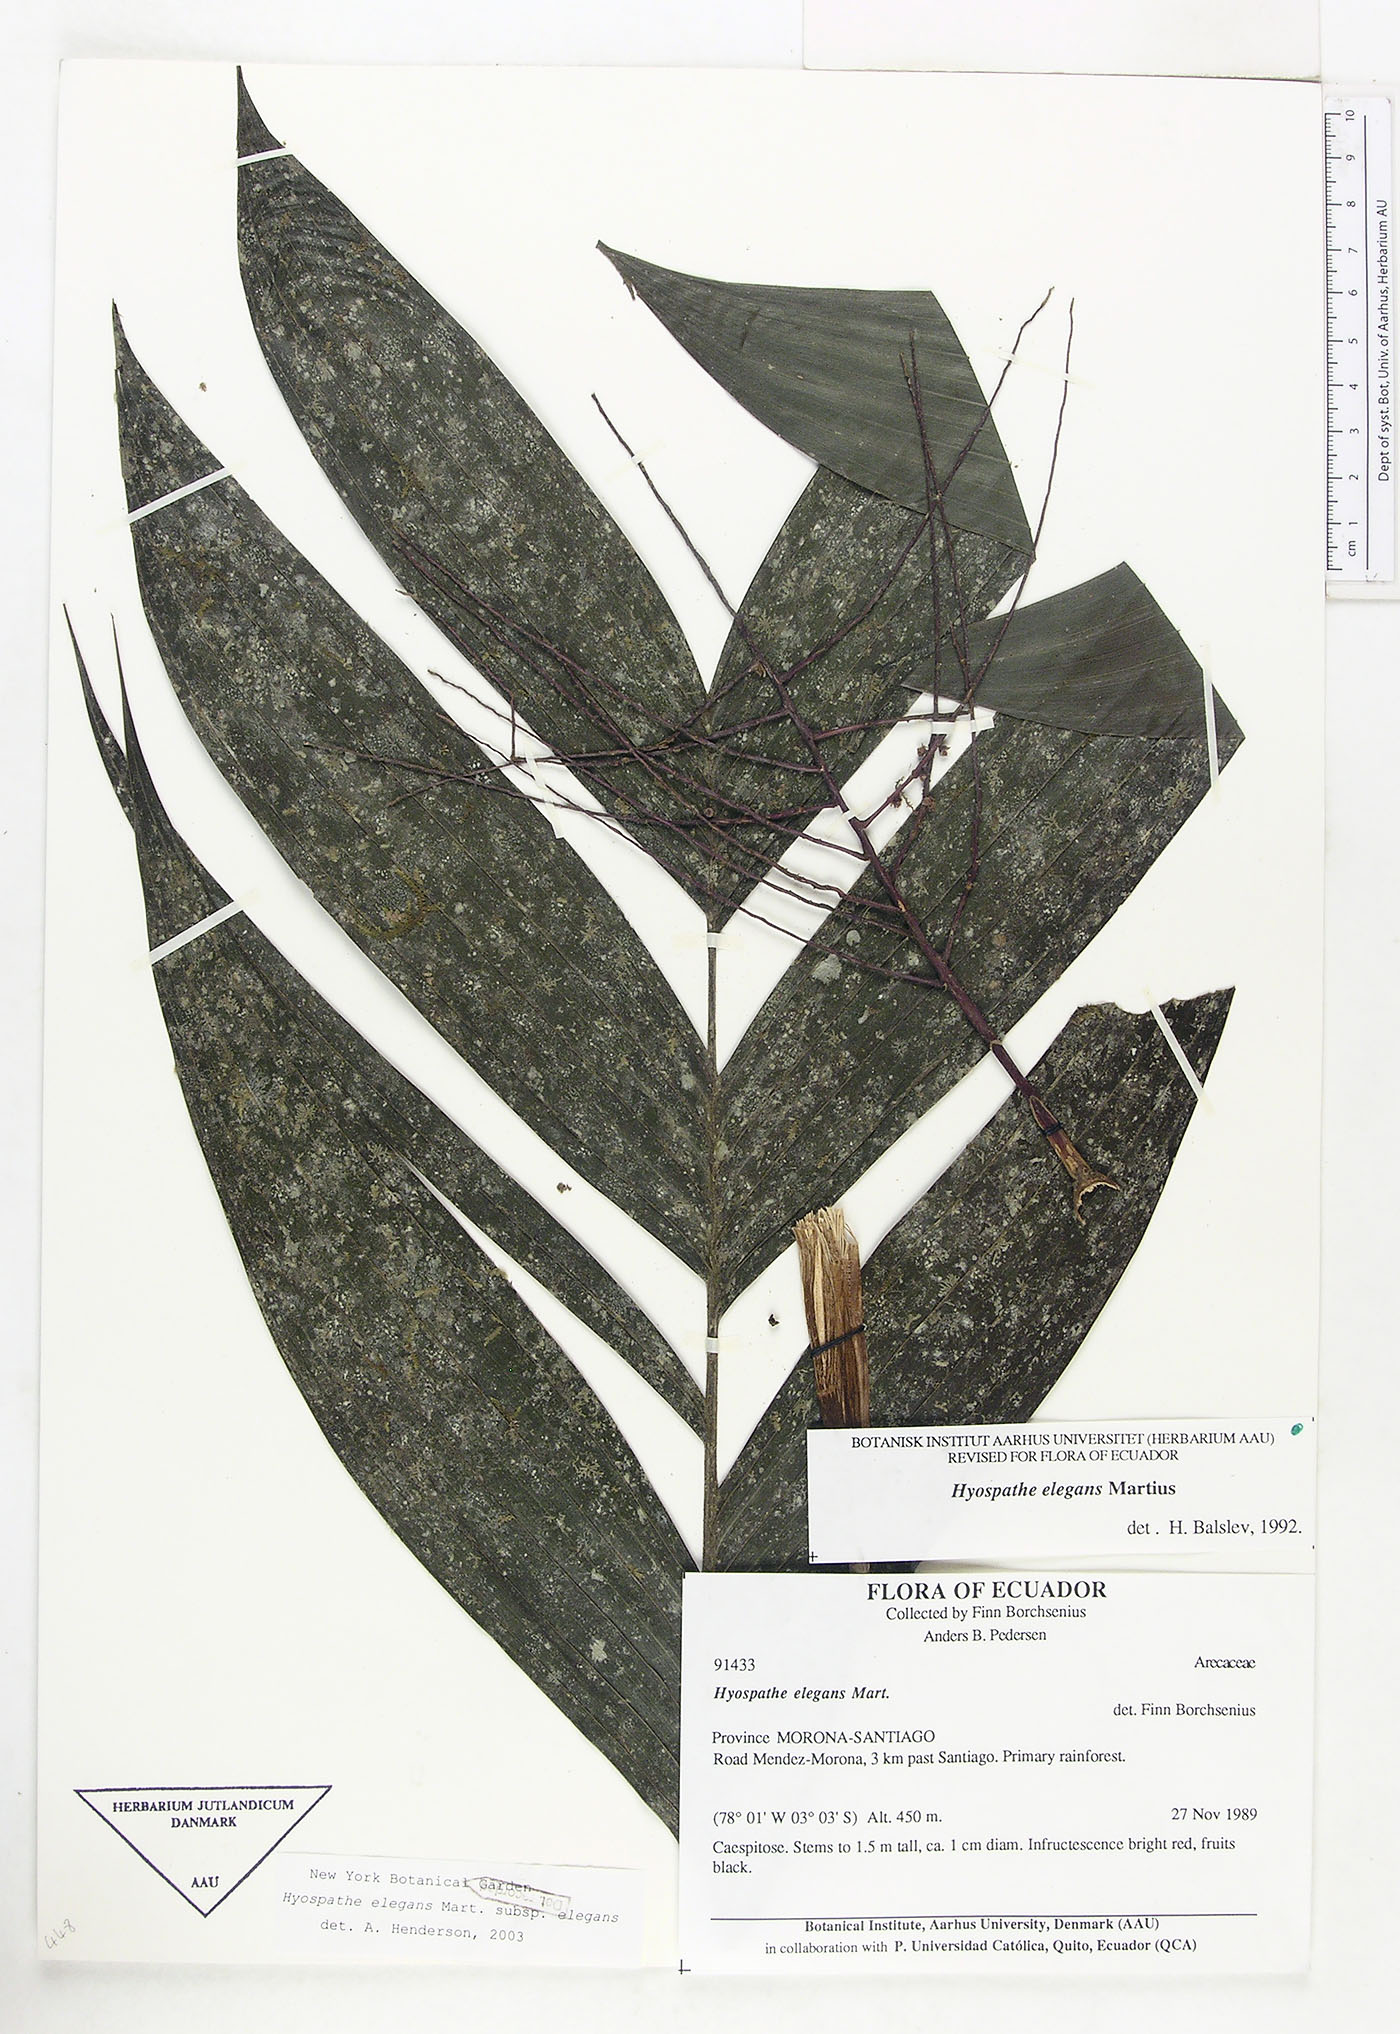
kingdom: Plantae
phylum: Tracheophyta
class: Liliopsida
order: Arecales
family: Arecaceae
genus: Hyospathe
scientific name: Hyospathe elegans
